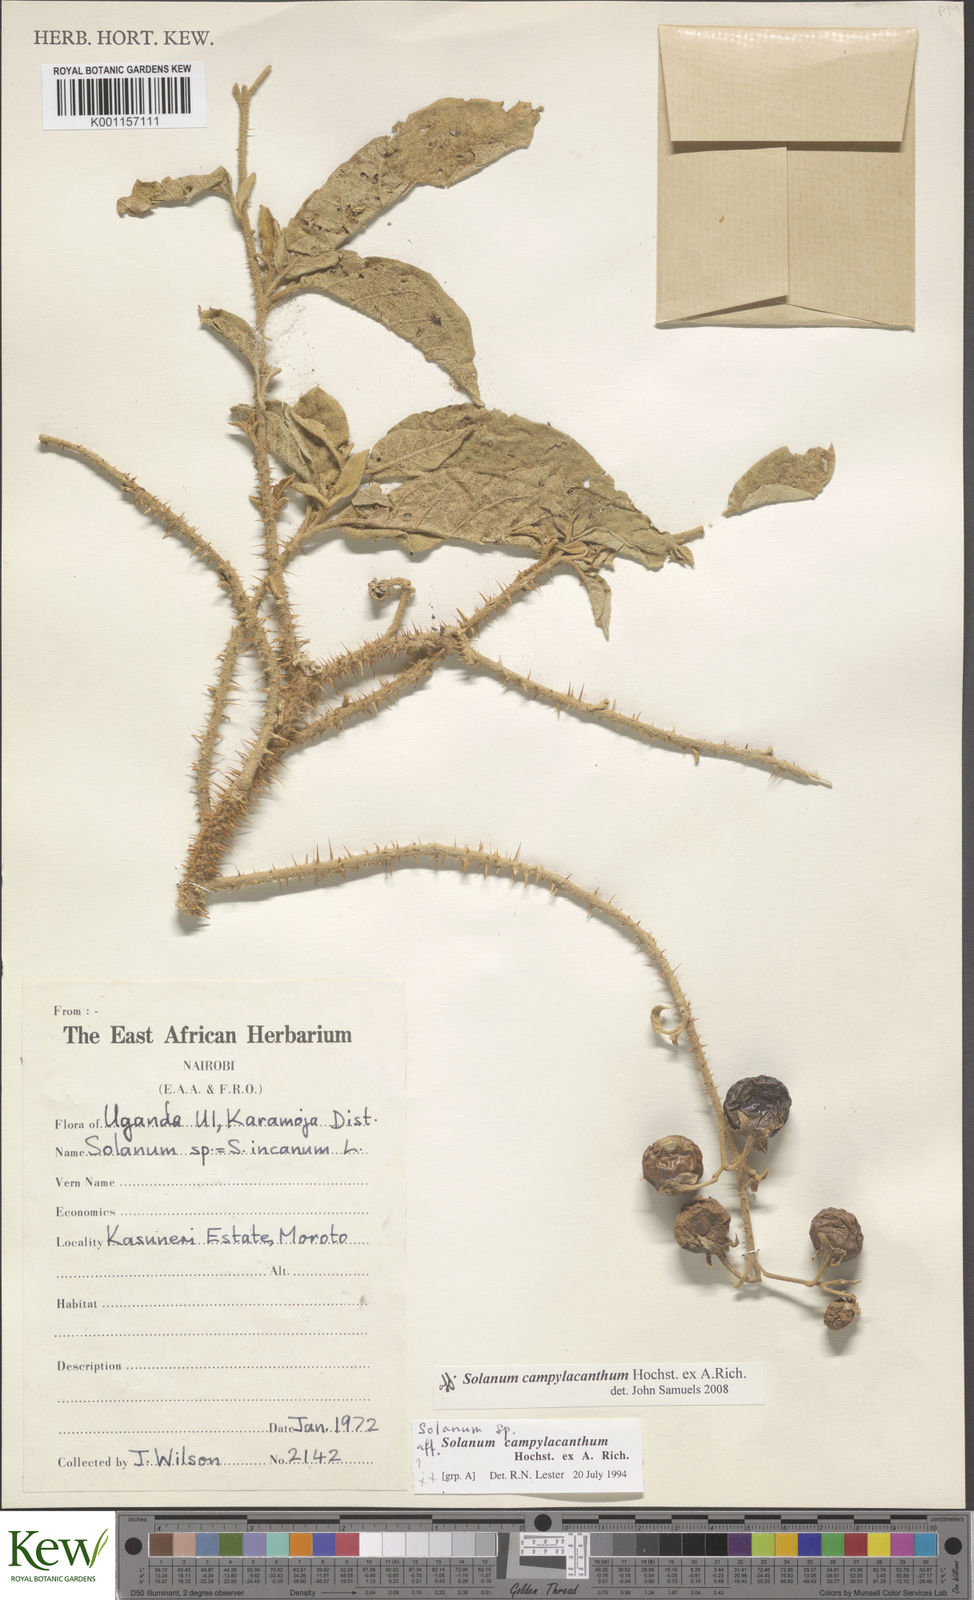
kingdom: Plantae
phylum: Tracheophyta
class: Magnoliopsida
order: Solanales
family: Solanaceae
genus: Solanum
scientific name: Solanum campylacanthum
